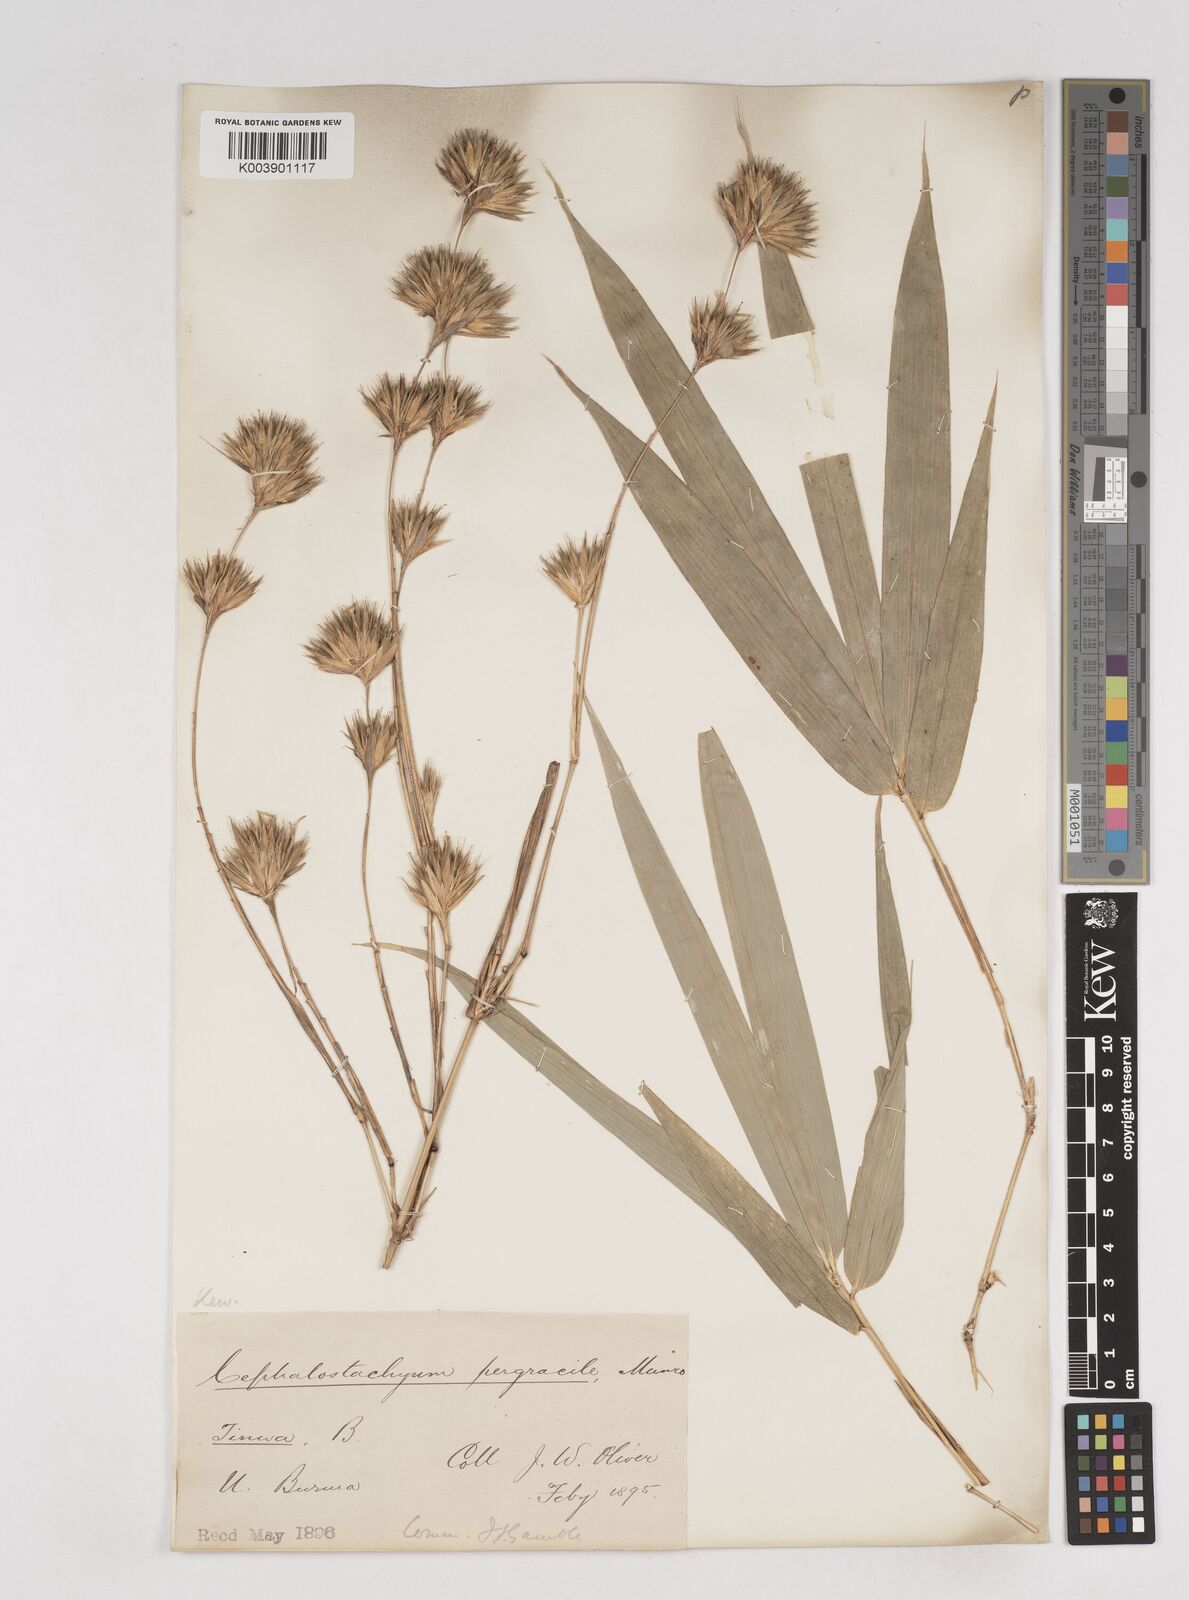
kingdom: Plantae
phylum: Tracheophyta
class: Liliopsida
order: Poales
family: Poaceae
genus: Schizostachyum
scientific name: Schizostachyum pergracile
